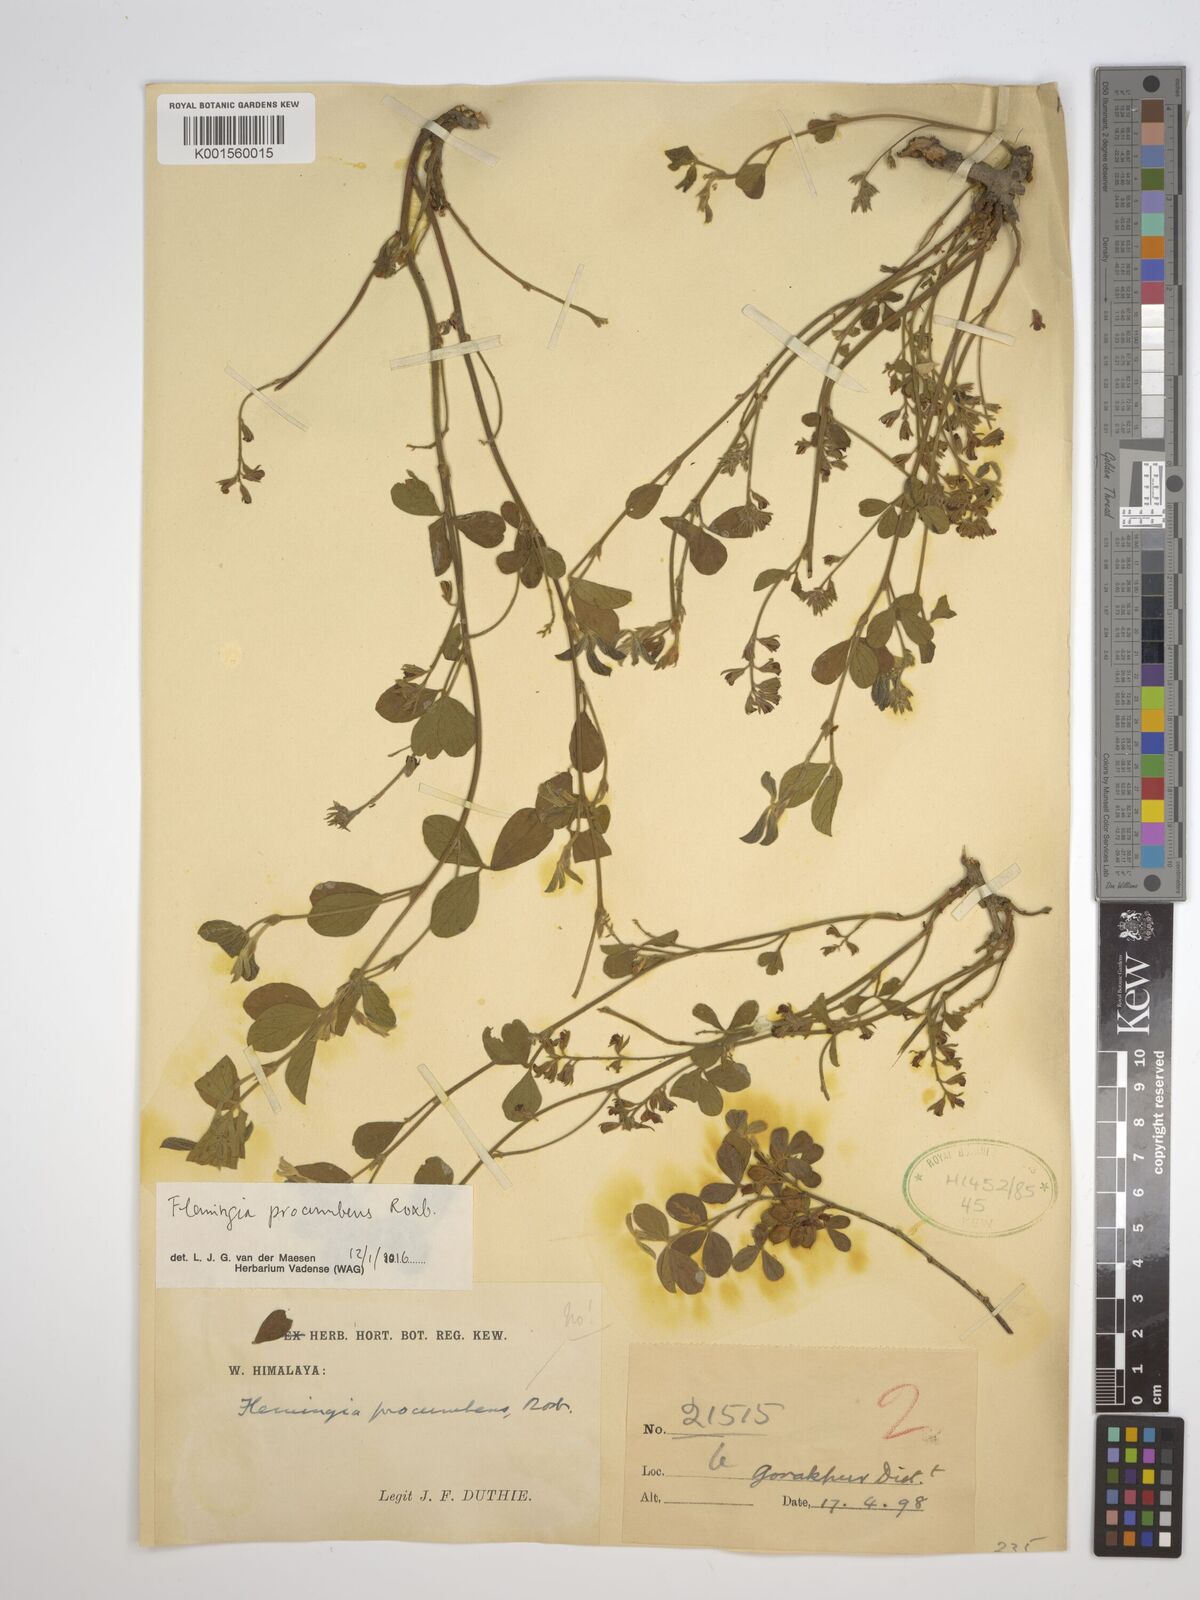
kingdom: Plantae
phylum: Tracheophyta
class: Magnoliopsida
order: Fabales
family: Fabaceae
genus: Flemingia
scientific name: Flemingia procumbens
